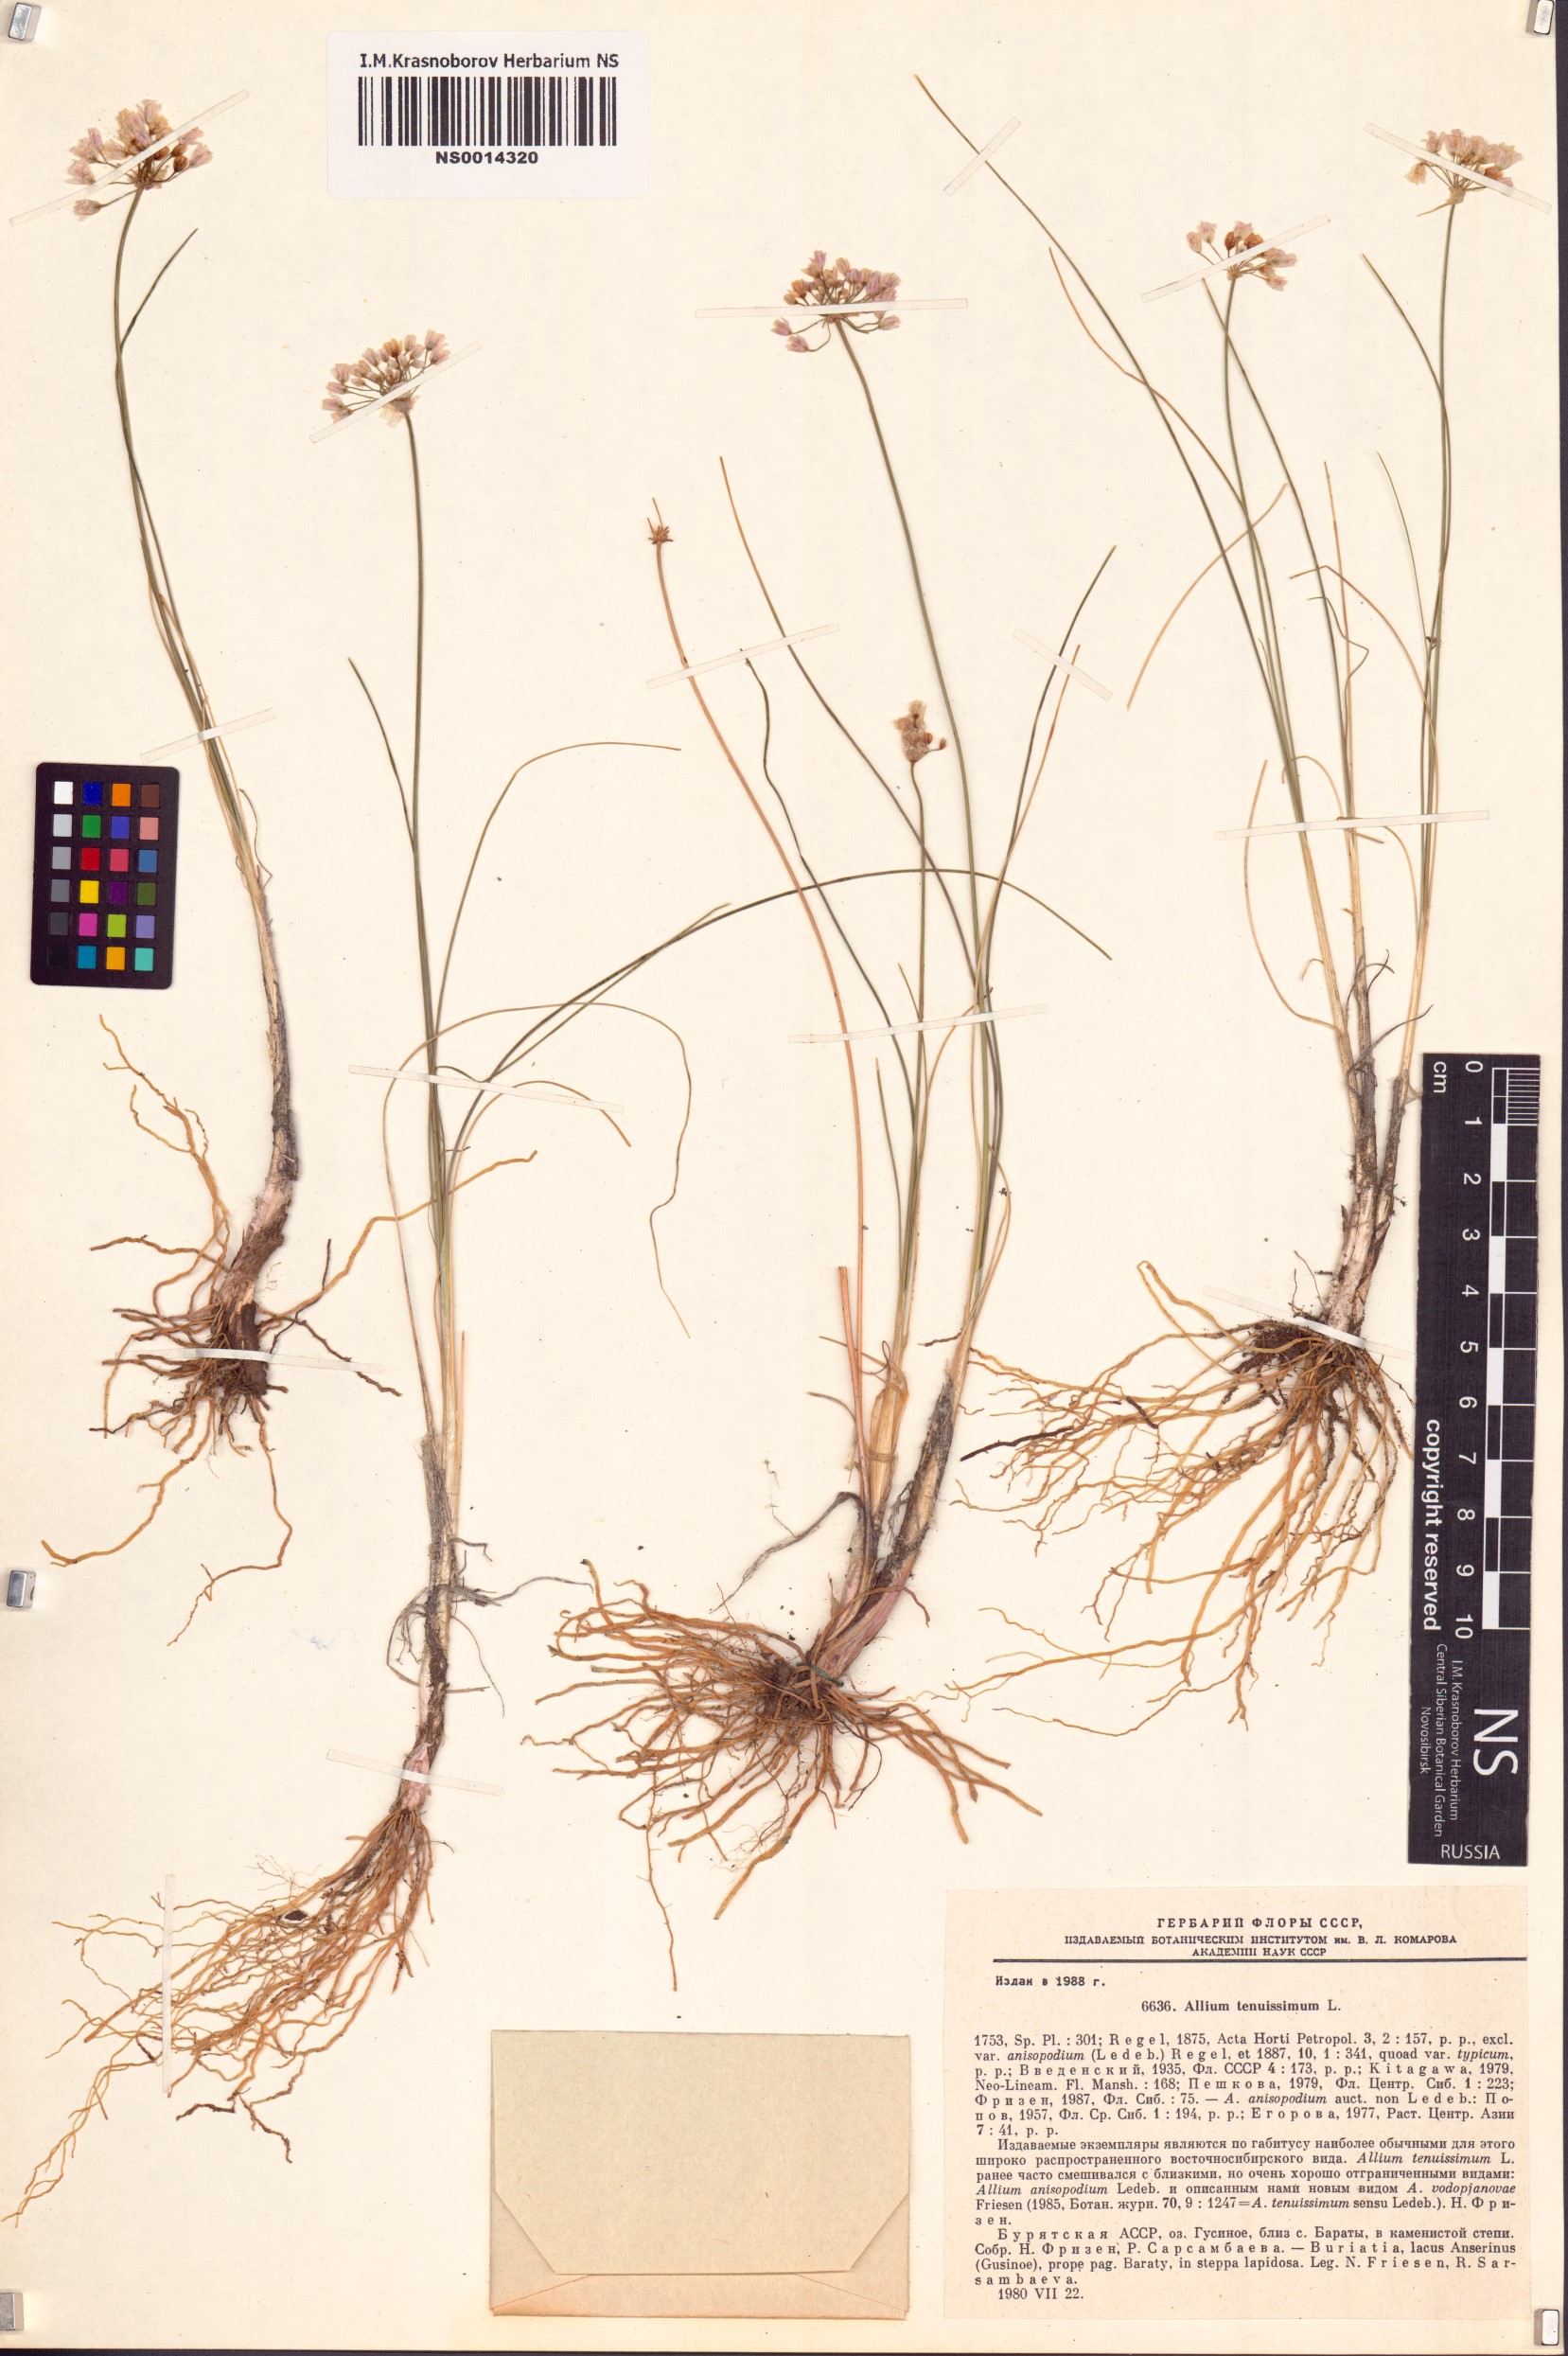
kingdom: Plantae
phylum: Tracheophyta
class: Liliopsida
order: Asparagales
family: Amaryllidaceae
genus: Allium
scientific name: Allium tenuissimum
